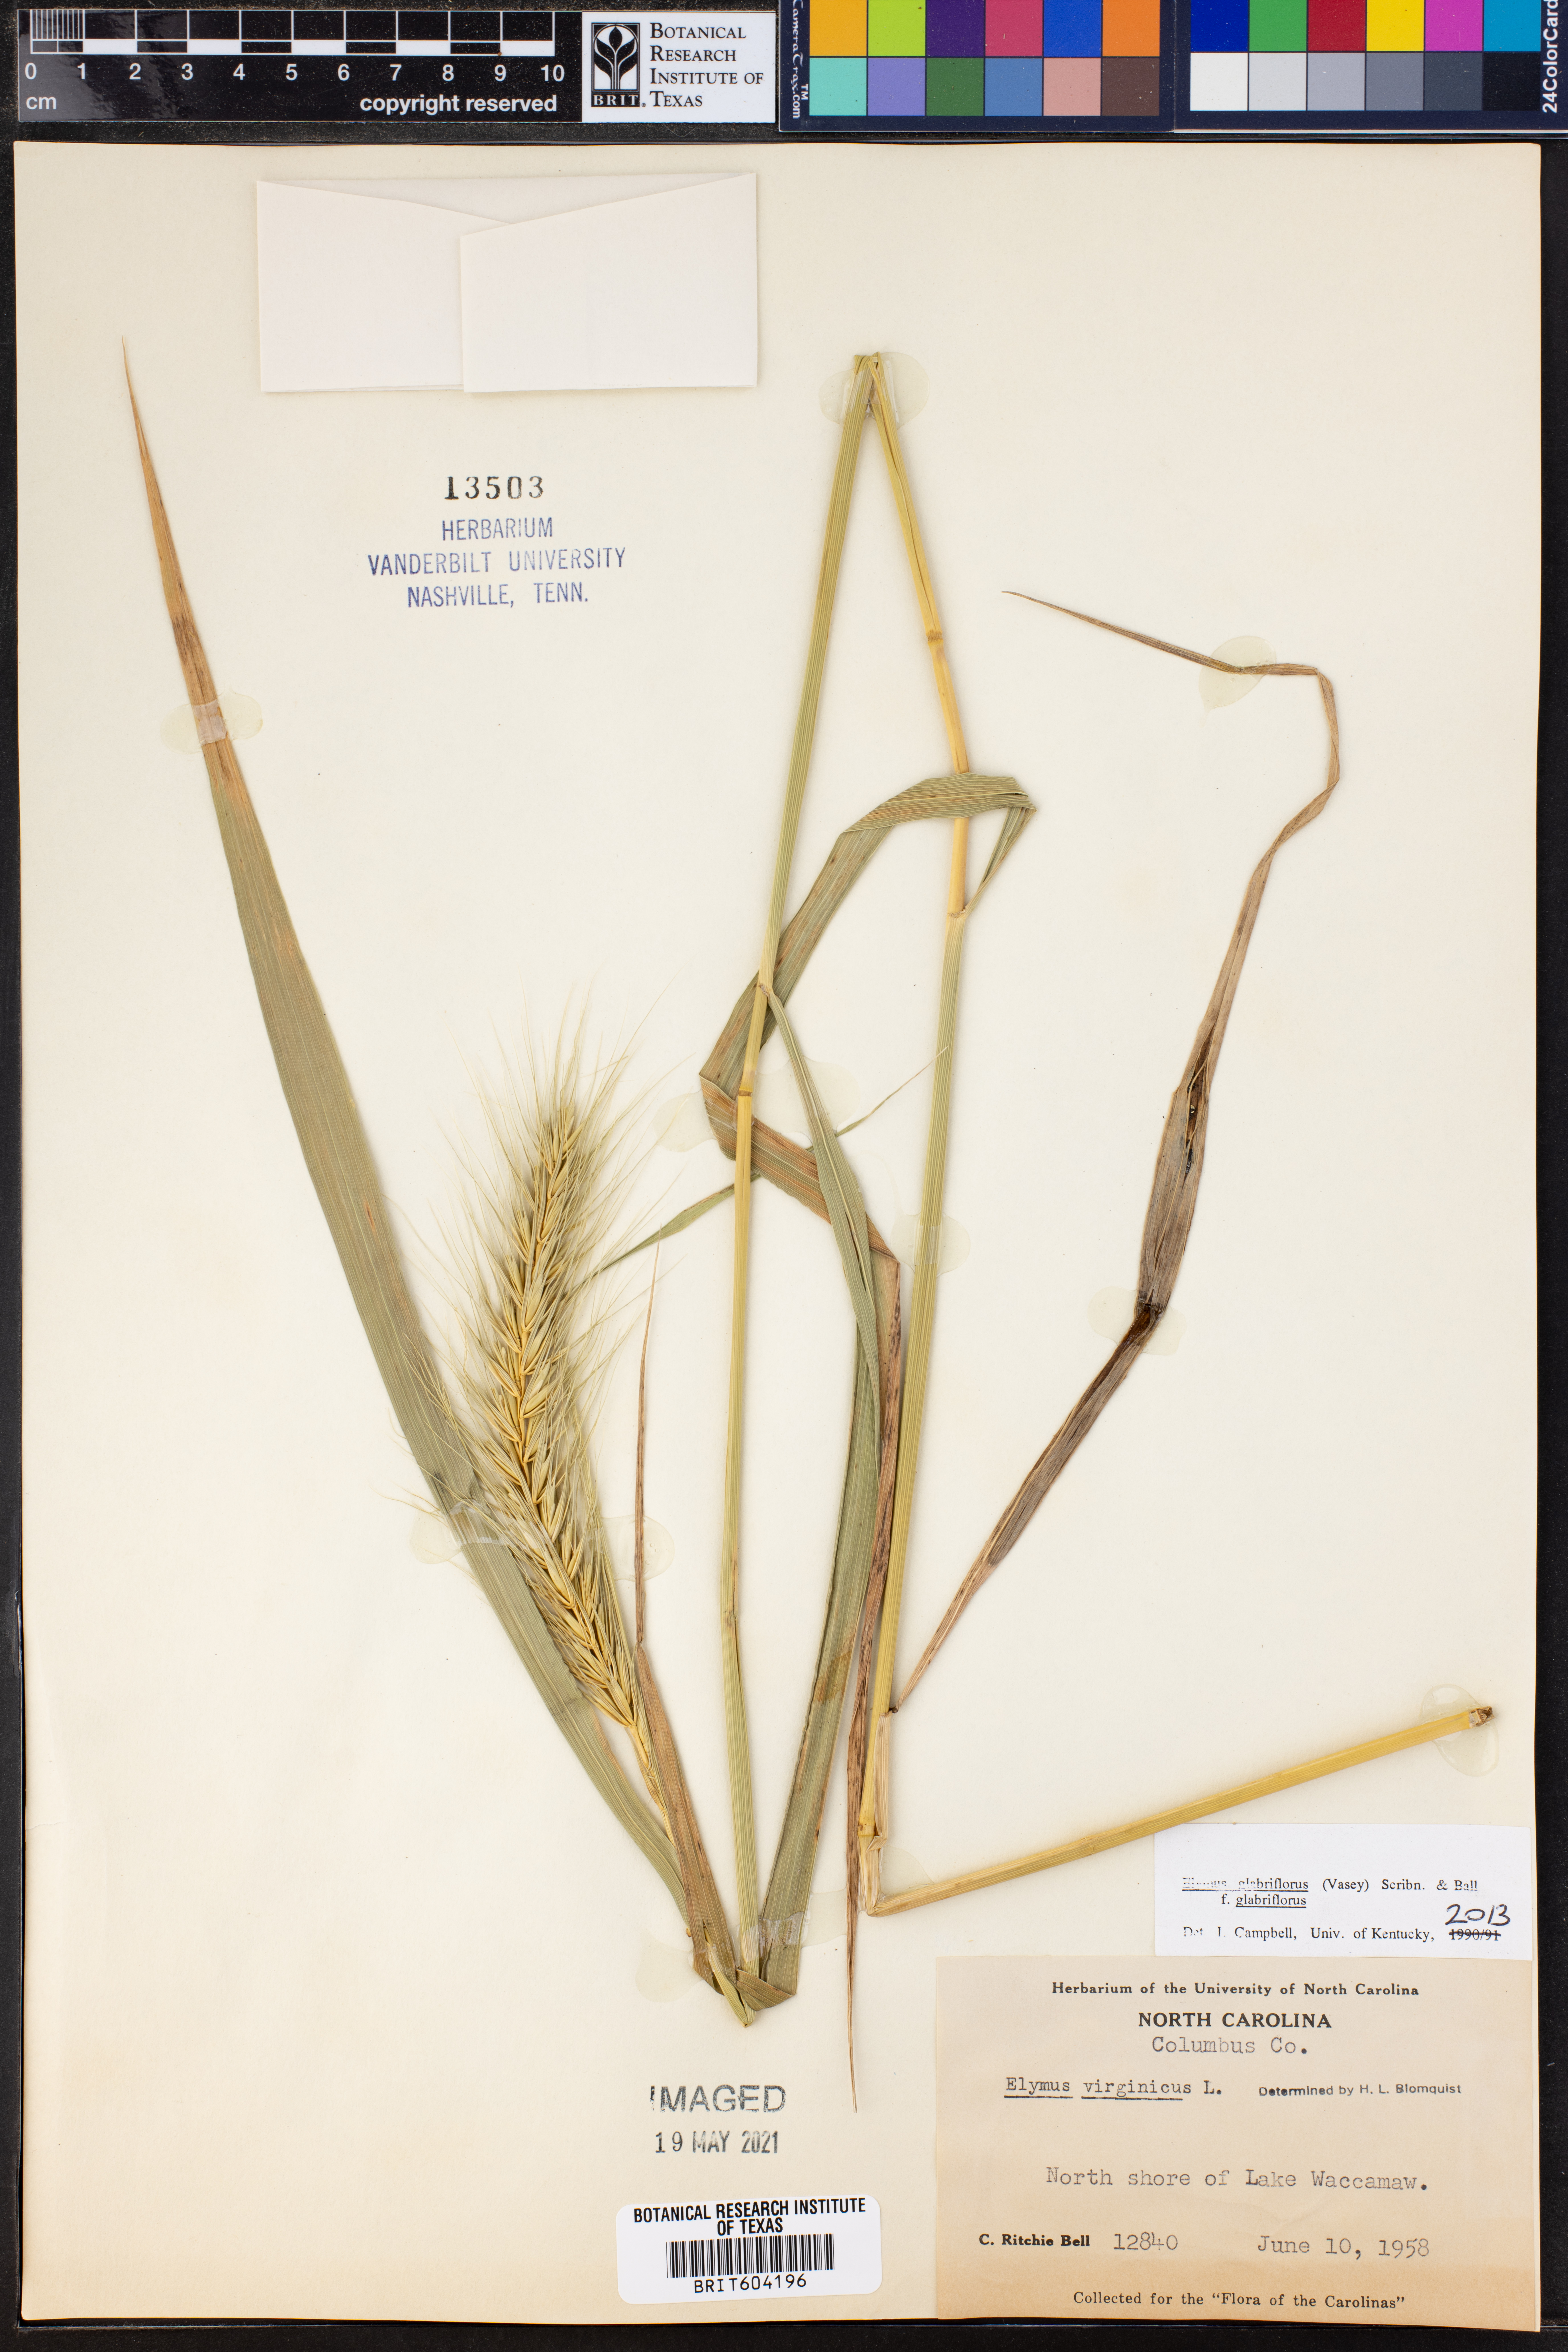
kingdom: Plantae
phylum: Tracheophyta
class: Liliopsida
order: Poales
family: Poaceae
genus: Elymus
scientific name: Elymus virginicus
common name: Common eastern wildrye
